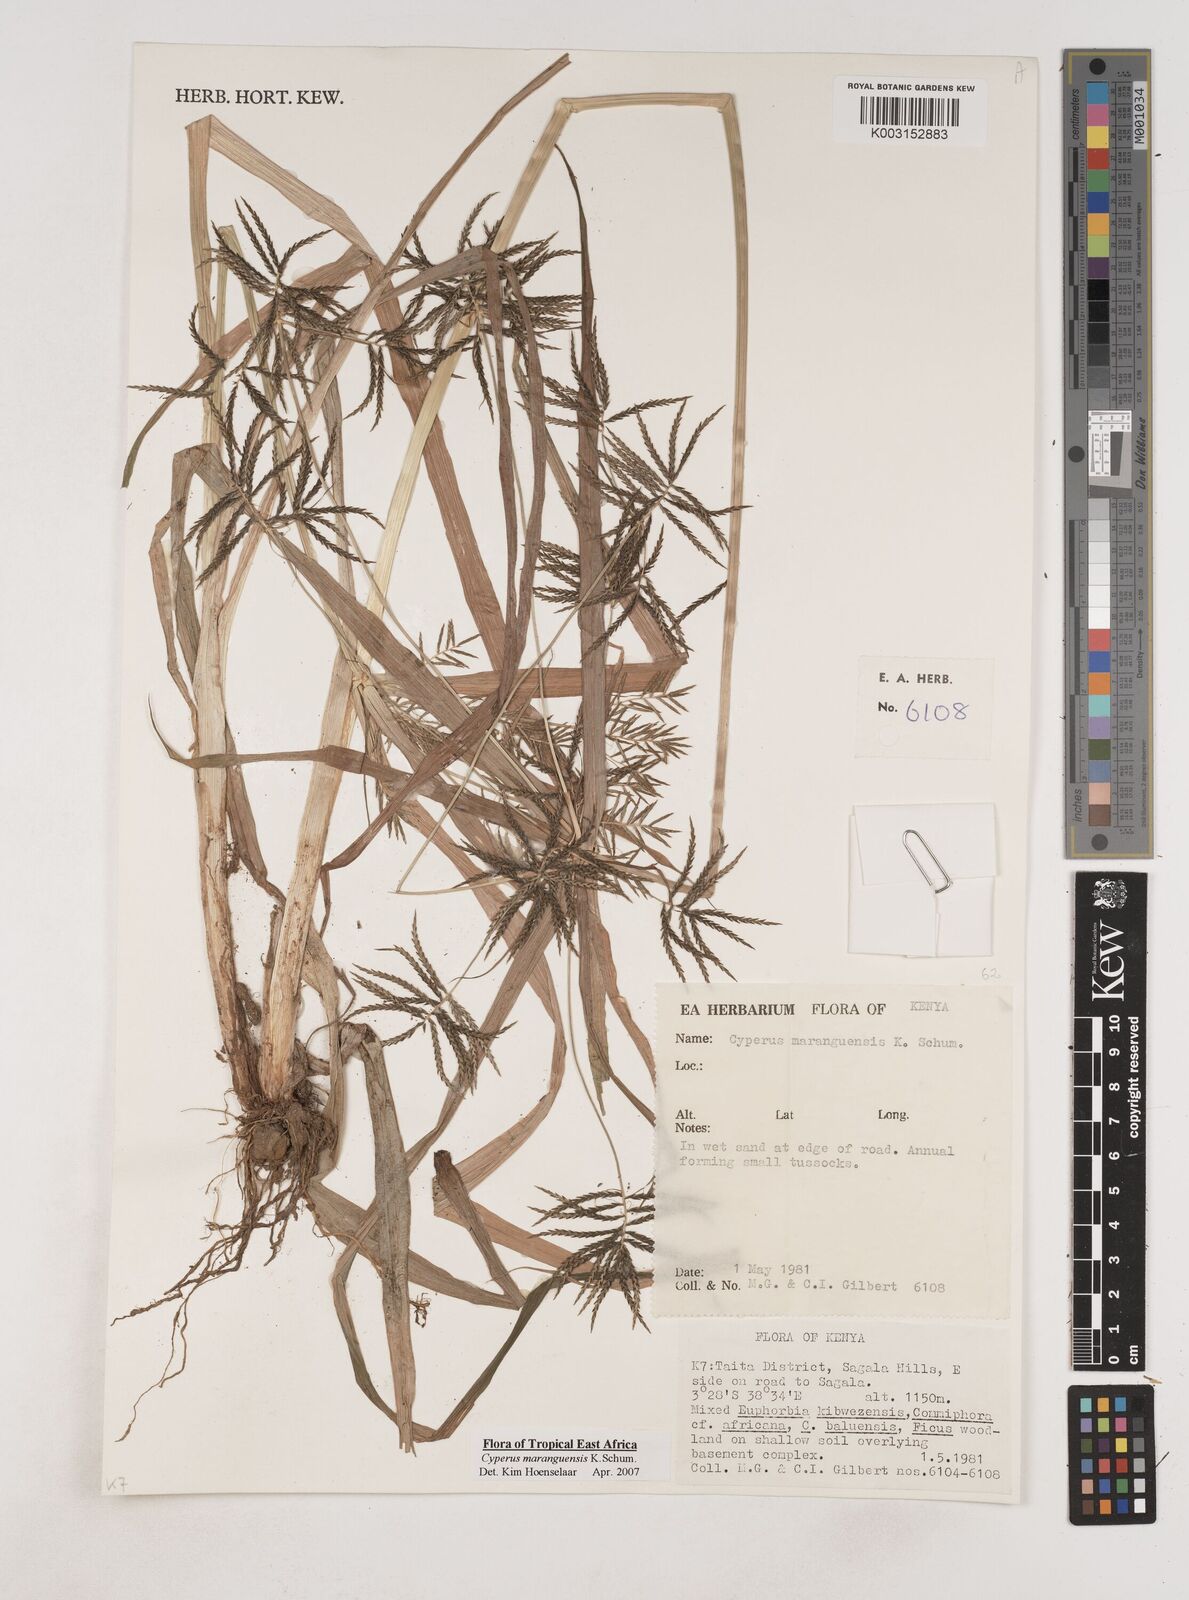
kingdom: Plantae
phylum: Tracheophyta
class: Liliopsida
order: Poales
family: Cyperaceae
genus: Cyperus
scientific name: Cyperus maranguensis
